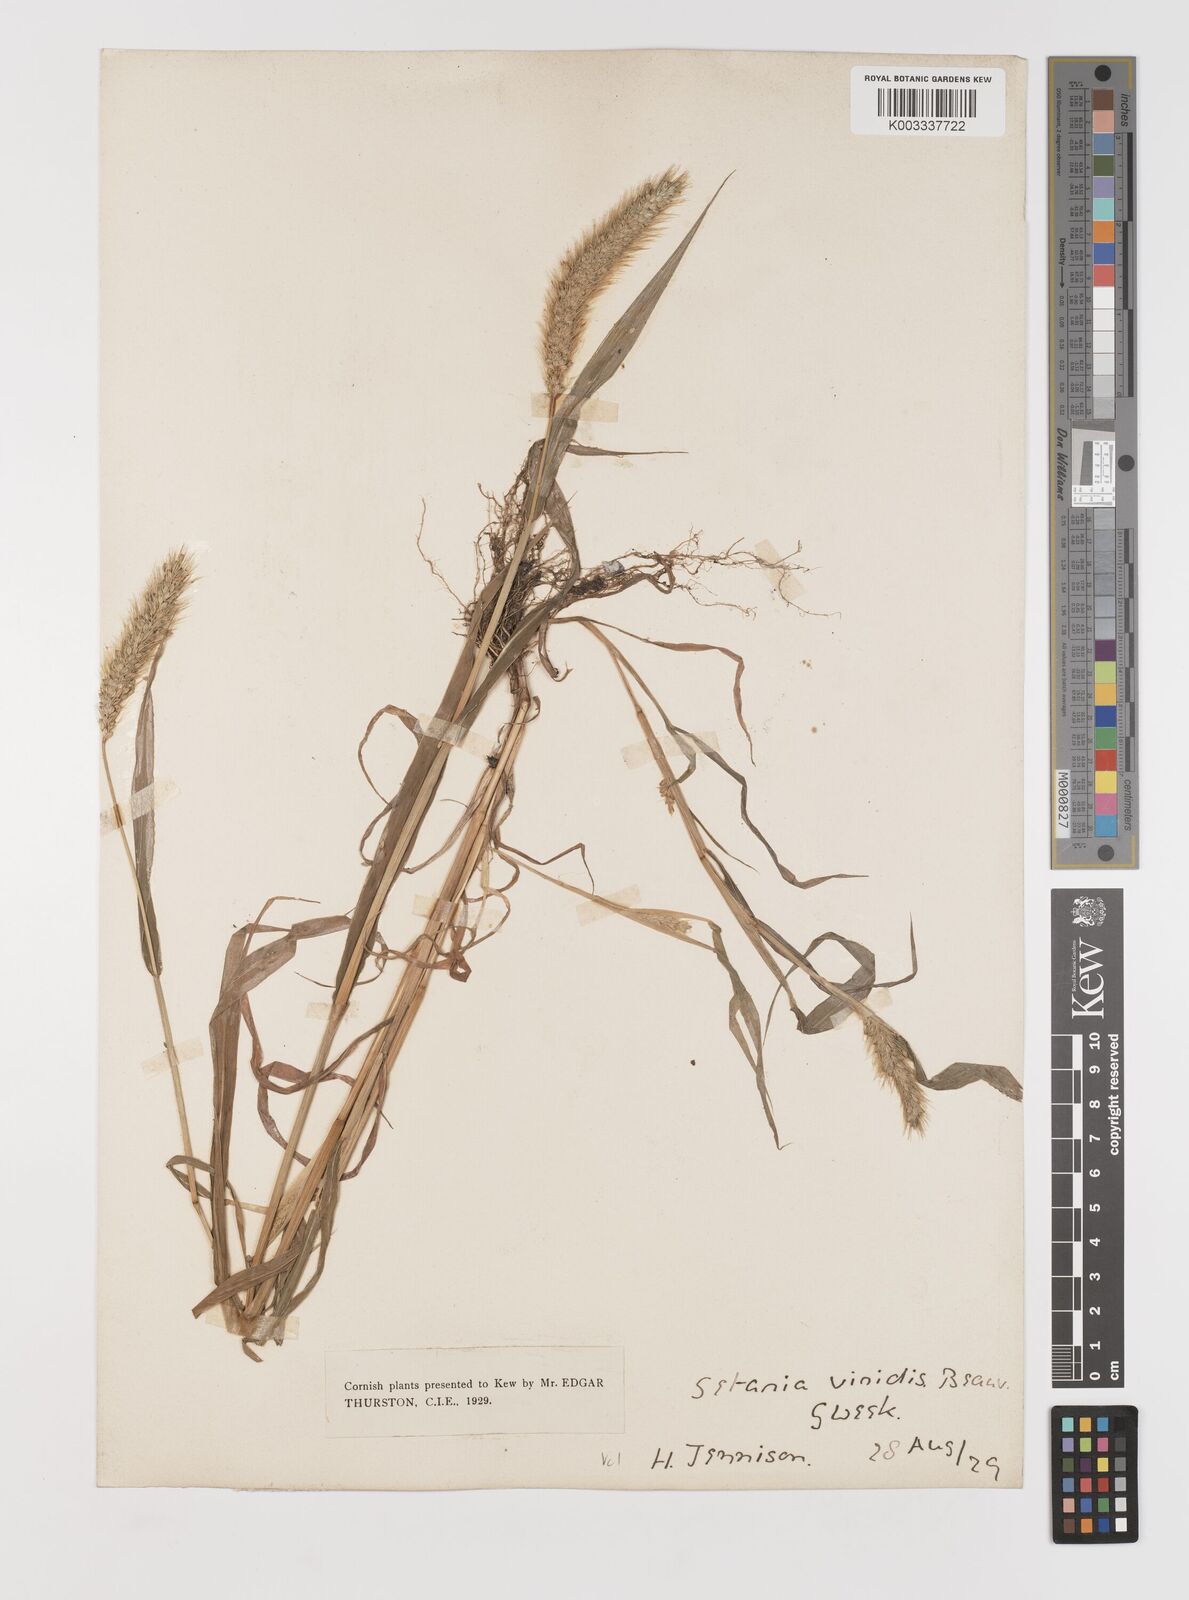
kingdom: Plantae
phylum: Tracheophyta
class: Liliopsida
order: Poales
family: Poaceae
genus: Setaria
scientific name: Setaria viridis
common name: Green bristlegrass
